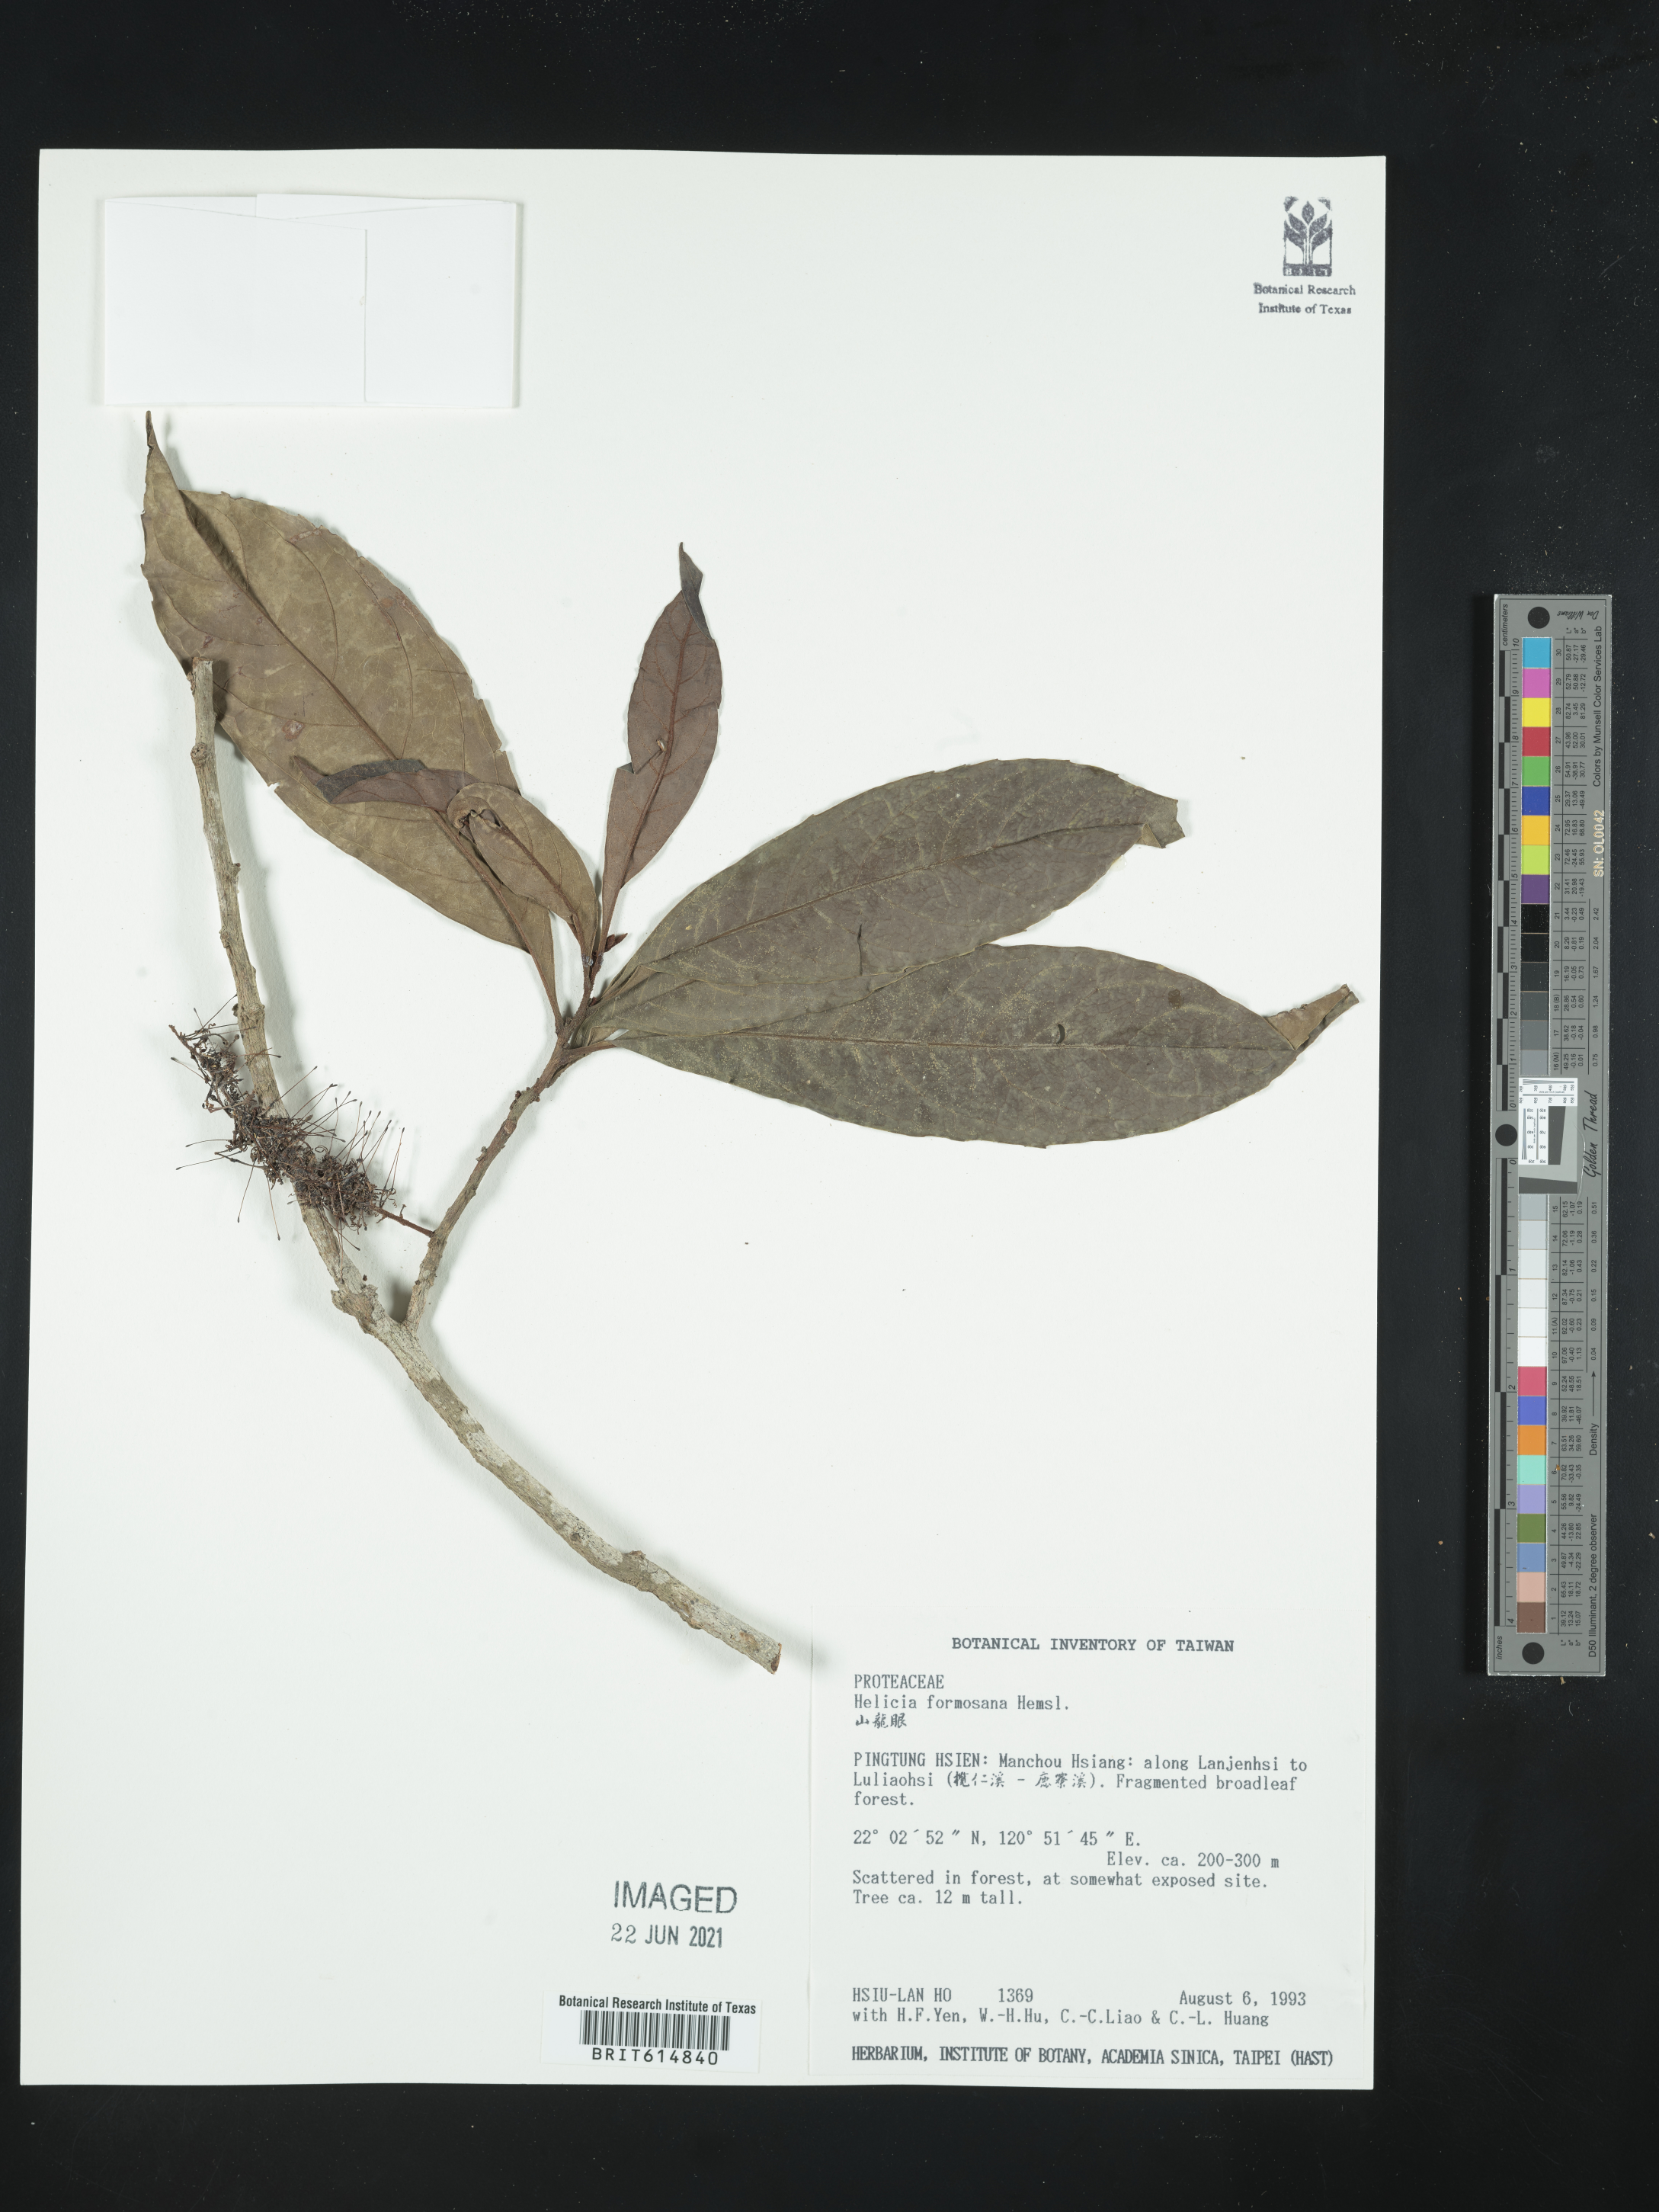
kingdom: Plantae
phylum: Tracheophyta
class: Magnoliopsida
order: Proteales
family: Proteaceae
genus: Helicia
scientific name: Helicia formosana
